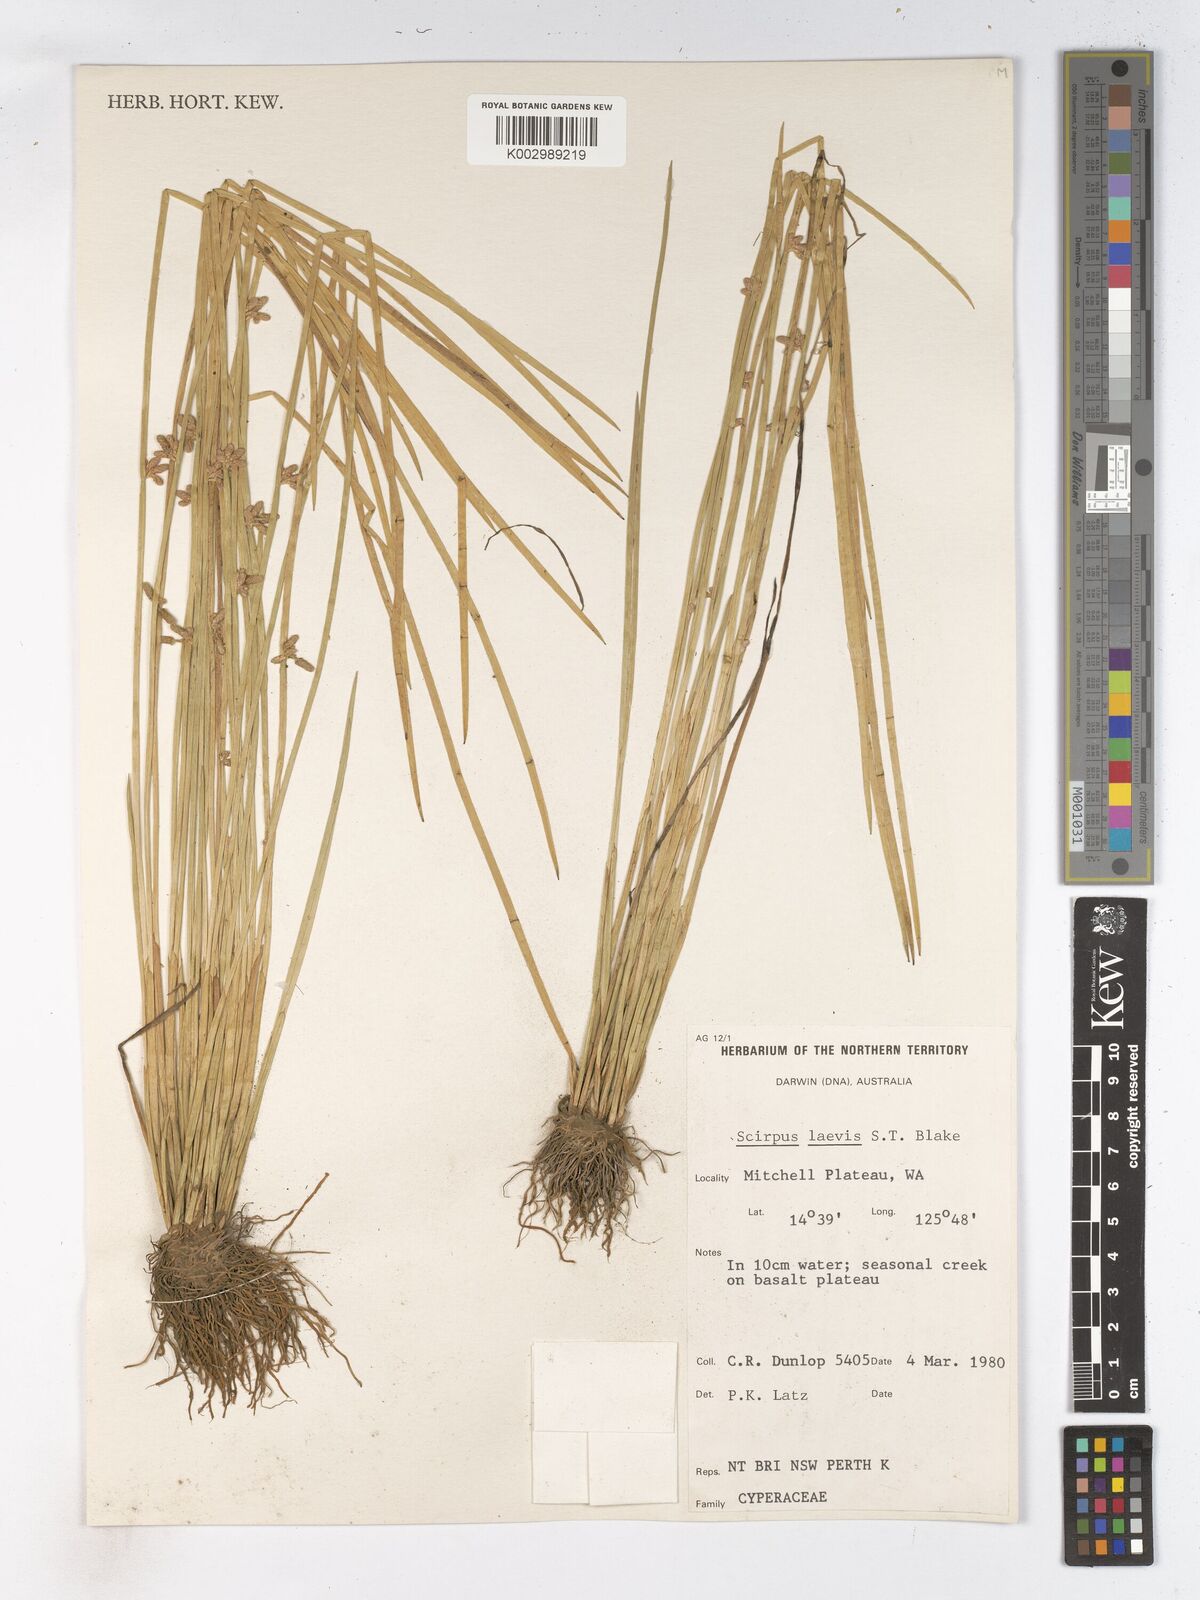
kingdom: Plantae
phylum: Tracheophyta
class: Liliopsida
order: Poales
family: Cyperaceae
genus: Schoenoplectiella
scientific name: Schoenoplectiella laevis
